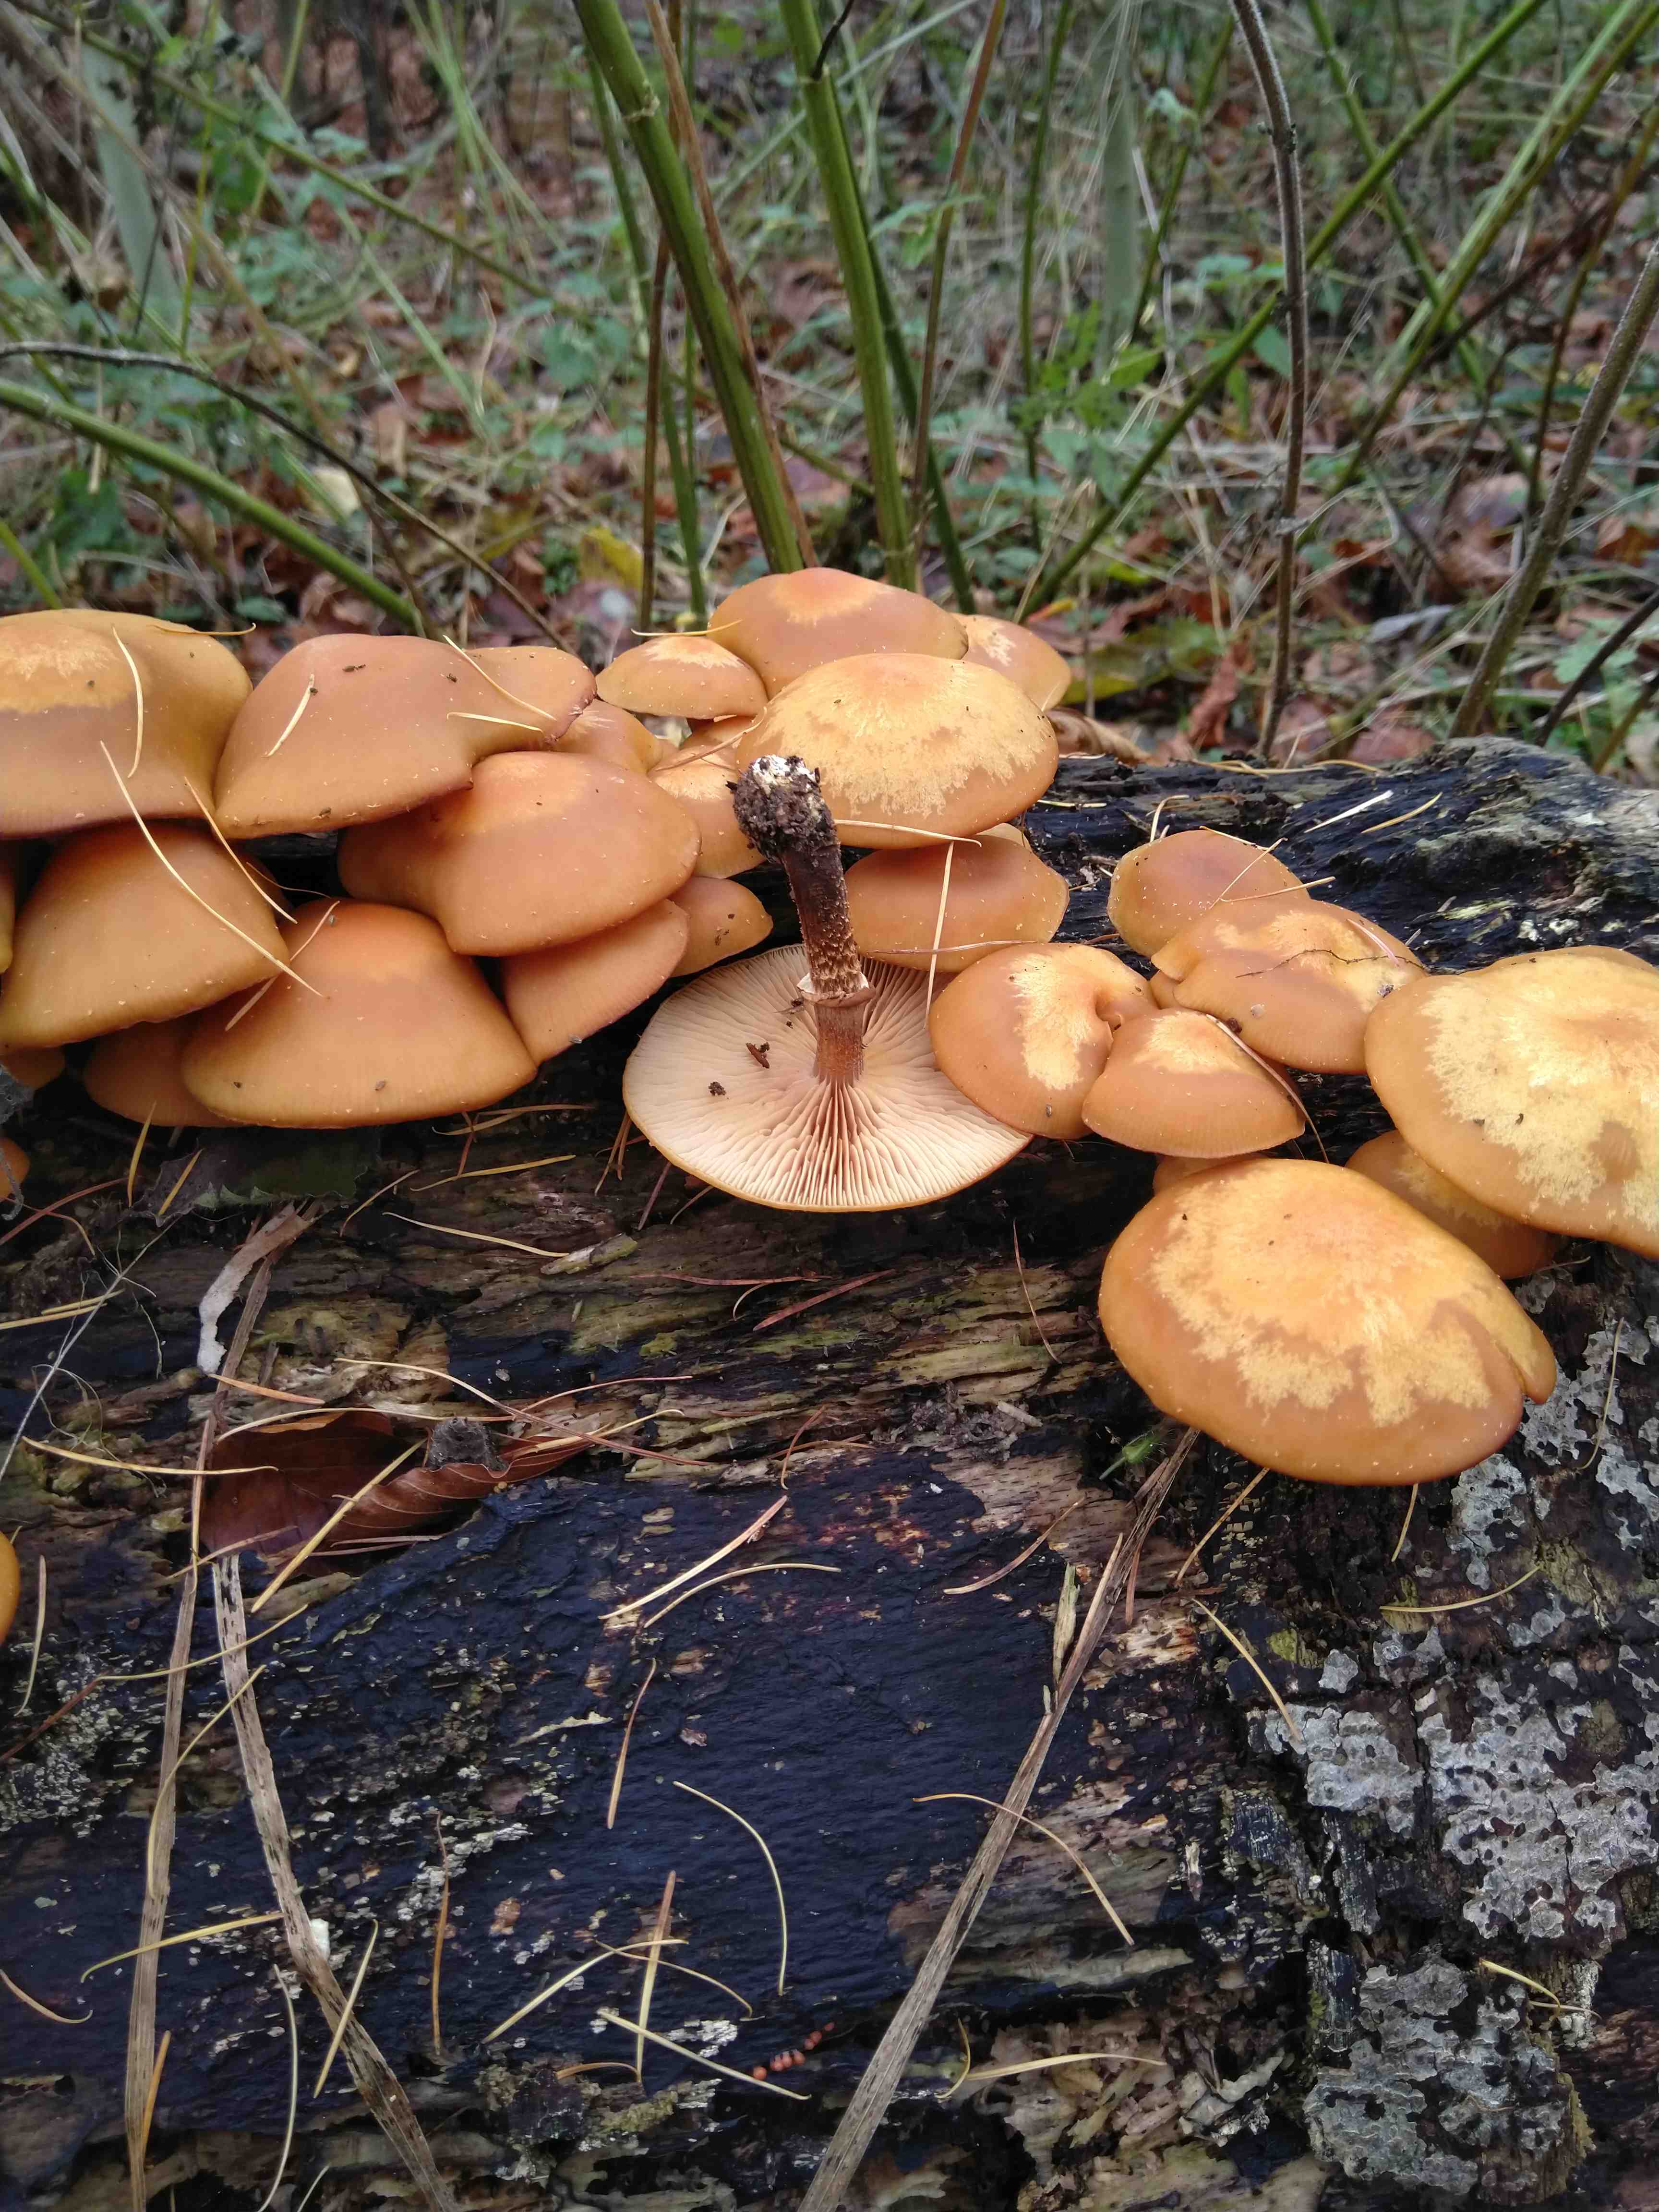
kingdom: Fungi
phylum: Basidiomycota
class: Agaricomycetes
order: Agaricales
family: Strophariaceae
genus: Kuehneromyces
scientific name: Kuehneromyces mutabilis
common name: foranderlig skælhat
